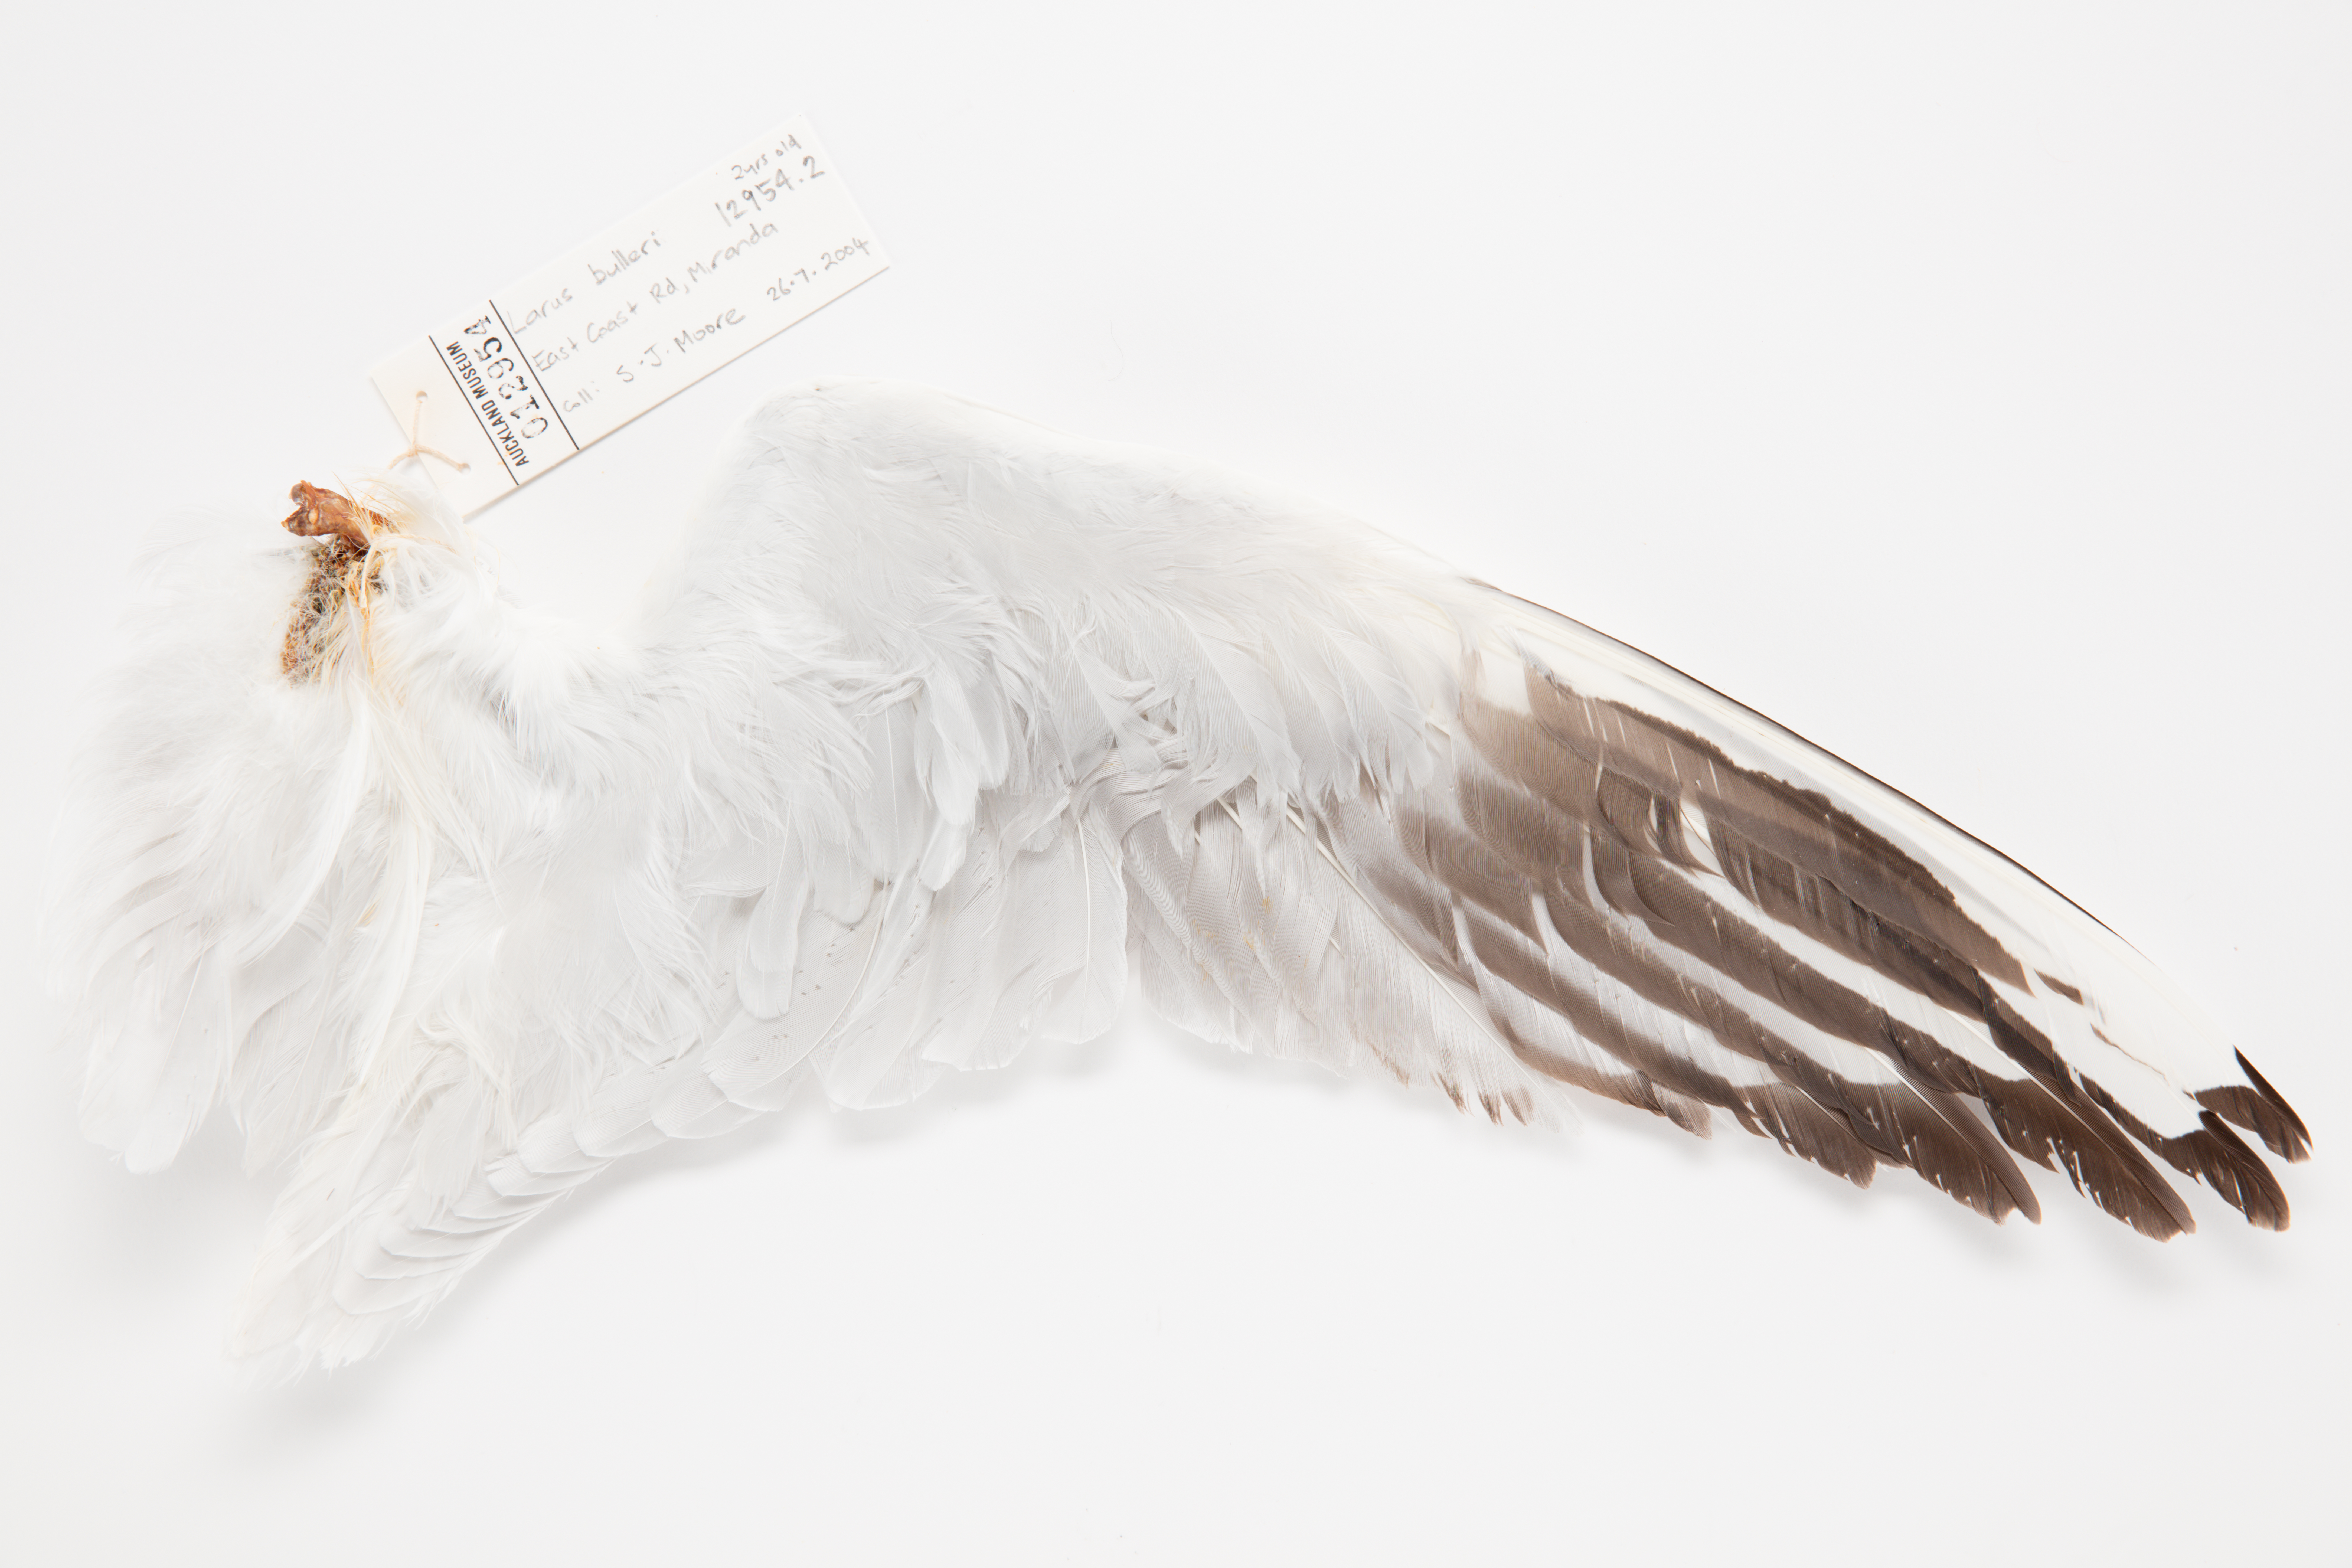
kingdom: Animalia
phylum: Chordata
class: Aves
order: Charadriiformes
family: Laridae
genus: Chroicocephalus
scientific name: Chroicocephalus bulleri
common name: Black-billed gull
